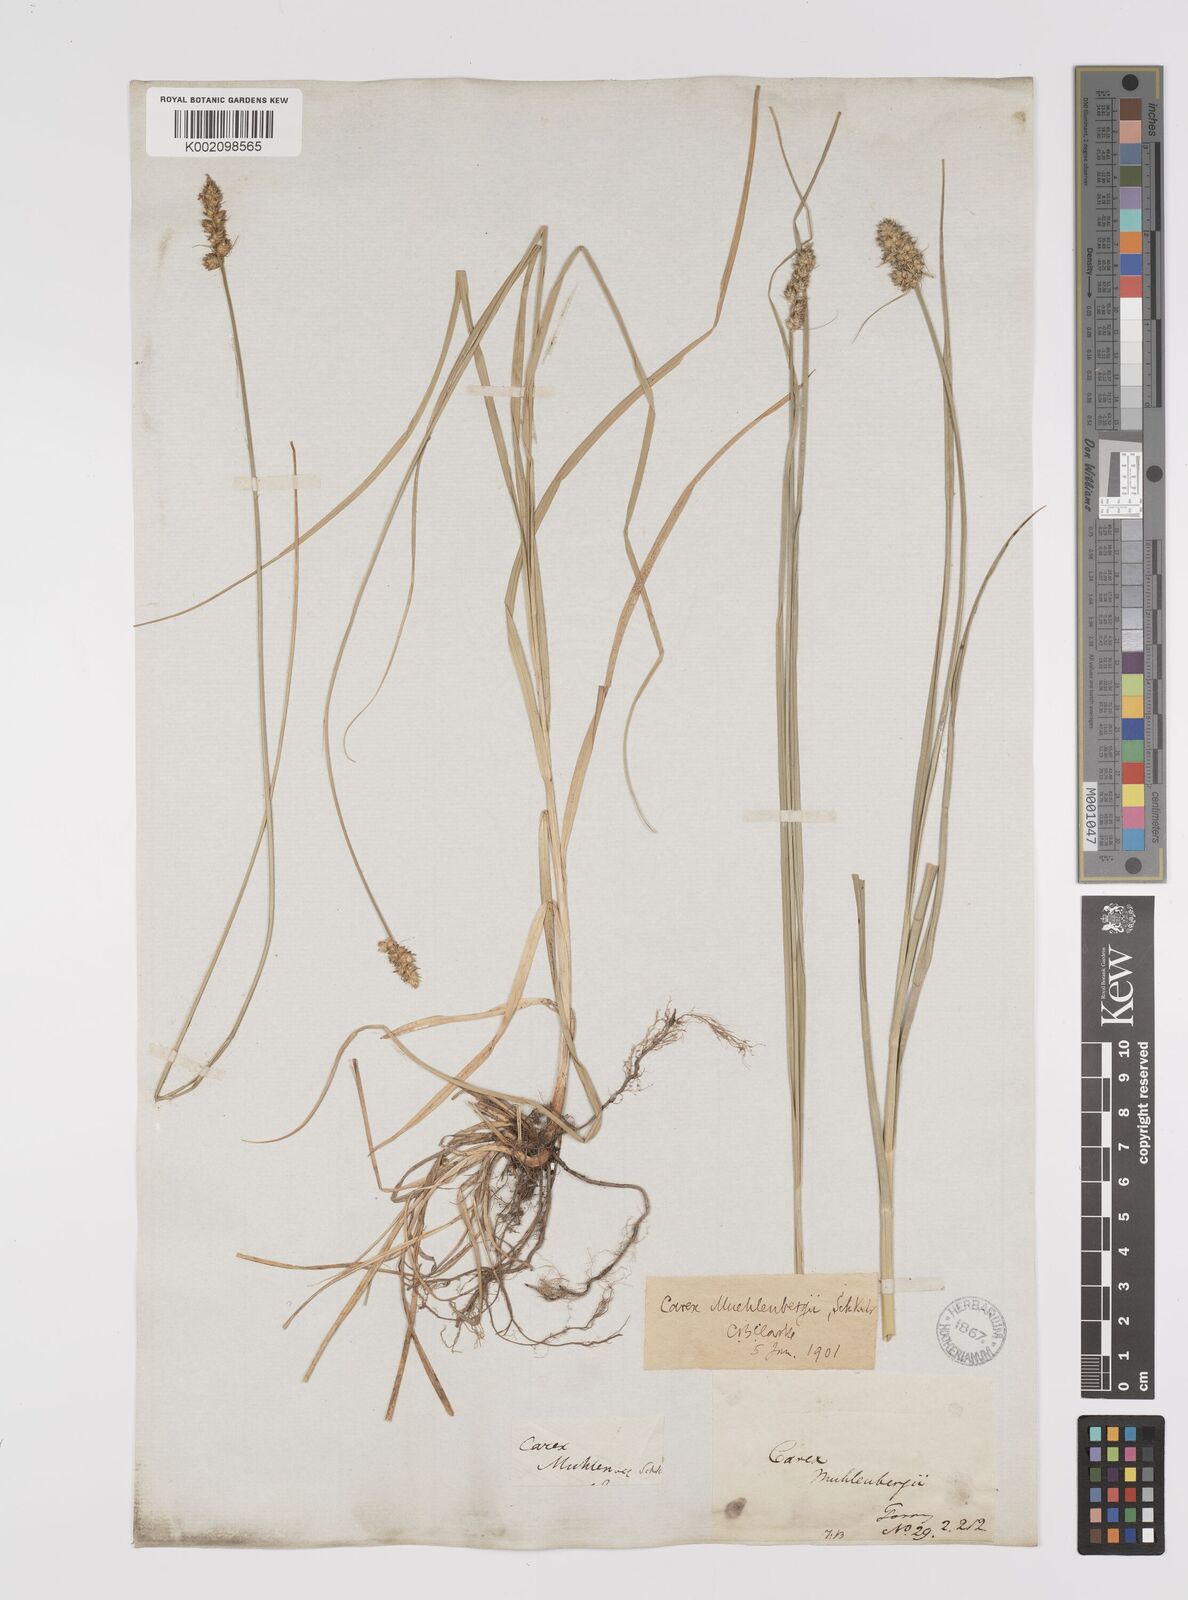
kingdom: Plantae
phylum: Tracheophyta
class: Liliopsida
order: Poales
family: Cyperaceae
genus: Carex
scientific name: Carex vulpinoidea
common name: American fox-sedge
